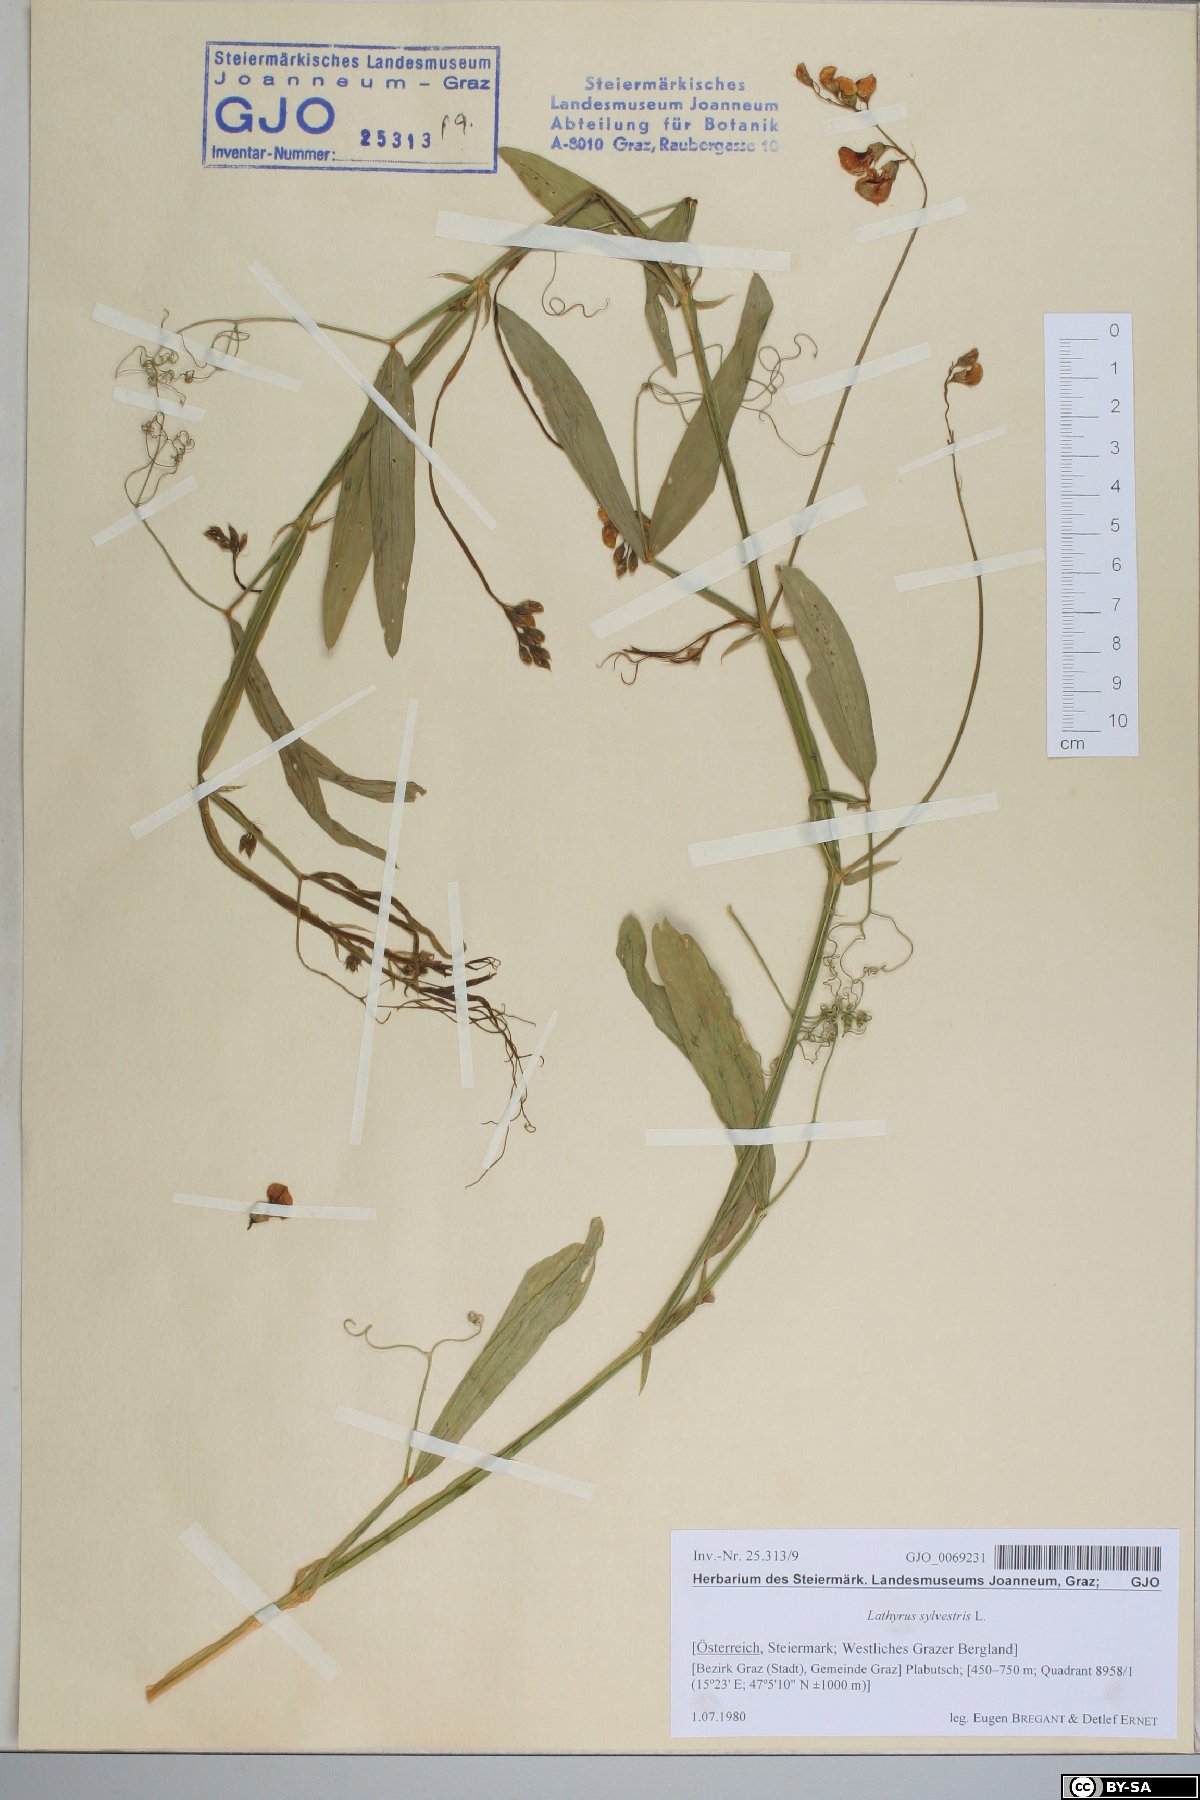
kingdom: Plantae
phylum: Tracheophyta
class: Magnoliopsida
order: Fabales
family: Fabaceae
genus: Lathyrus
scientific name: Lathyrus sylvestris
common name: Flat pea
